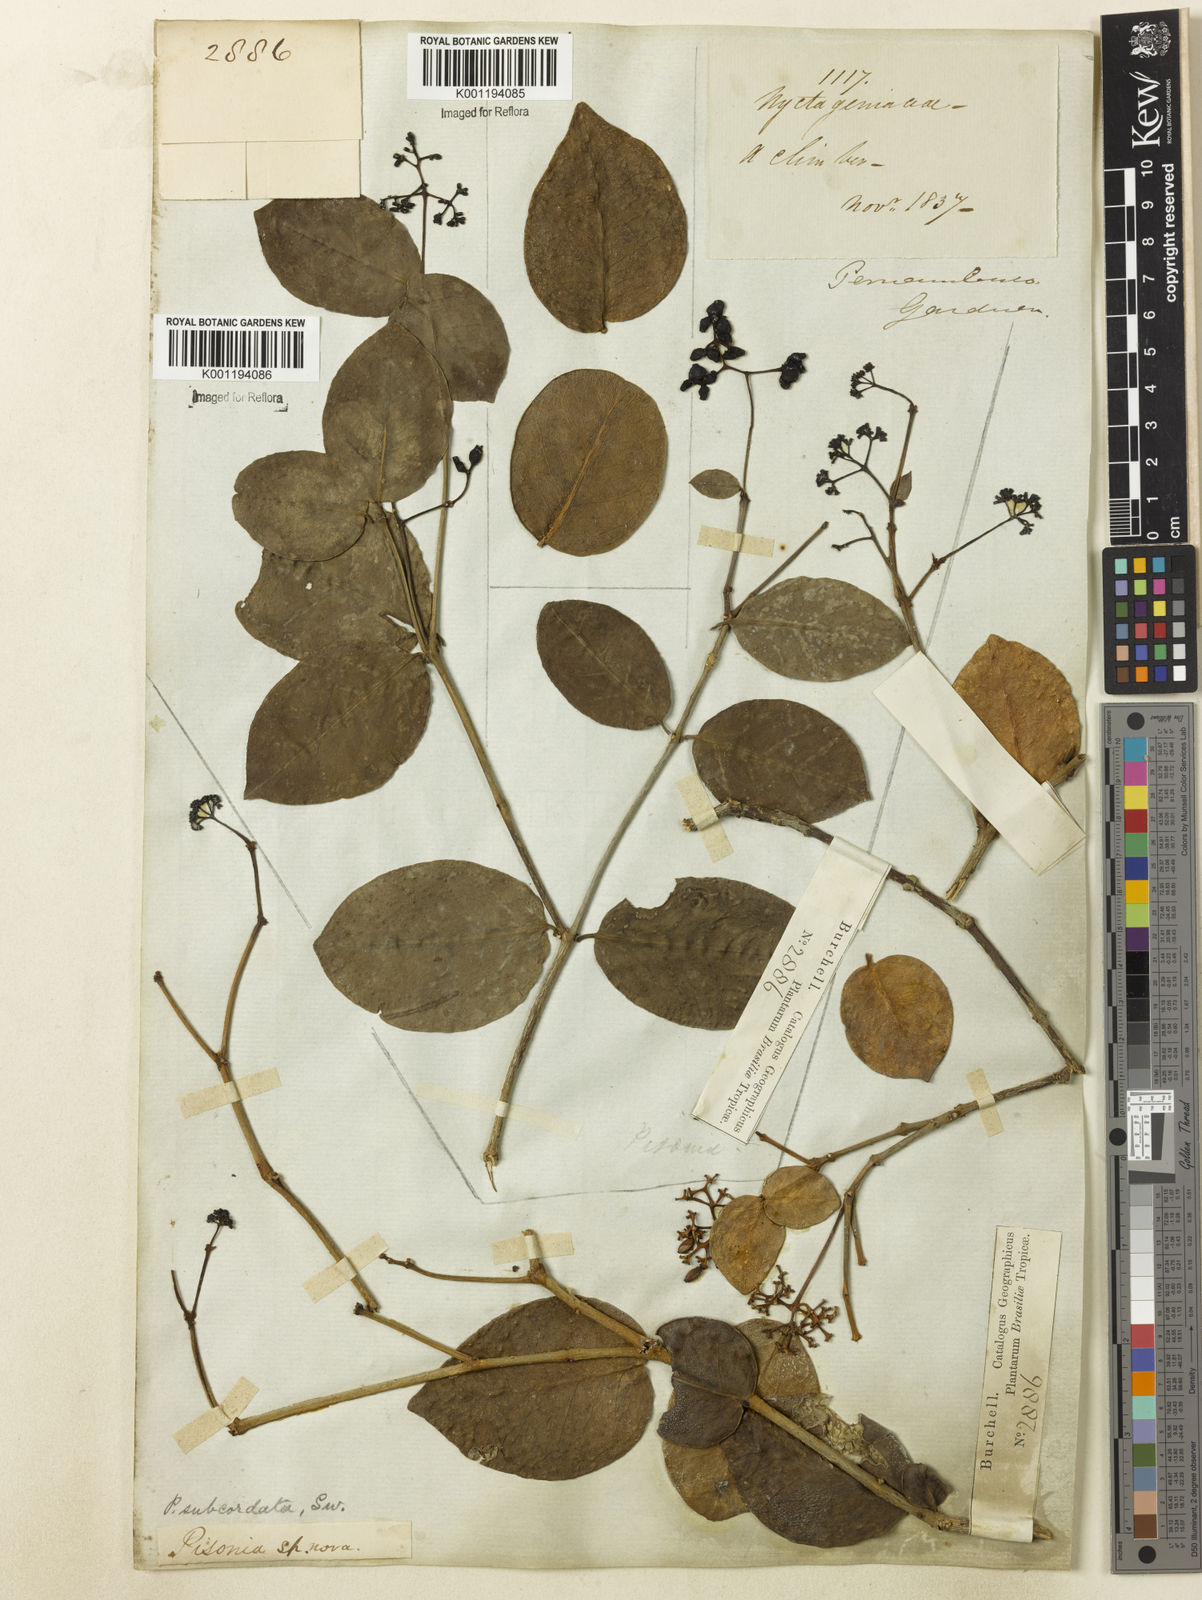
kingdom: Plantae
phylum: Tracheophyta
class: Magnoliopsida
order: Caryophyllales
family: Nyctaginaceae
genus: Guapira
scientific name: Guapira
